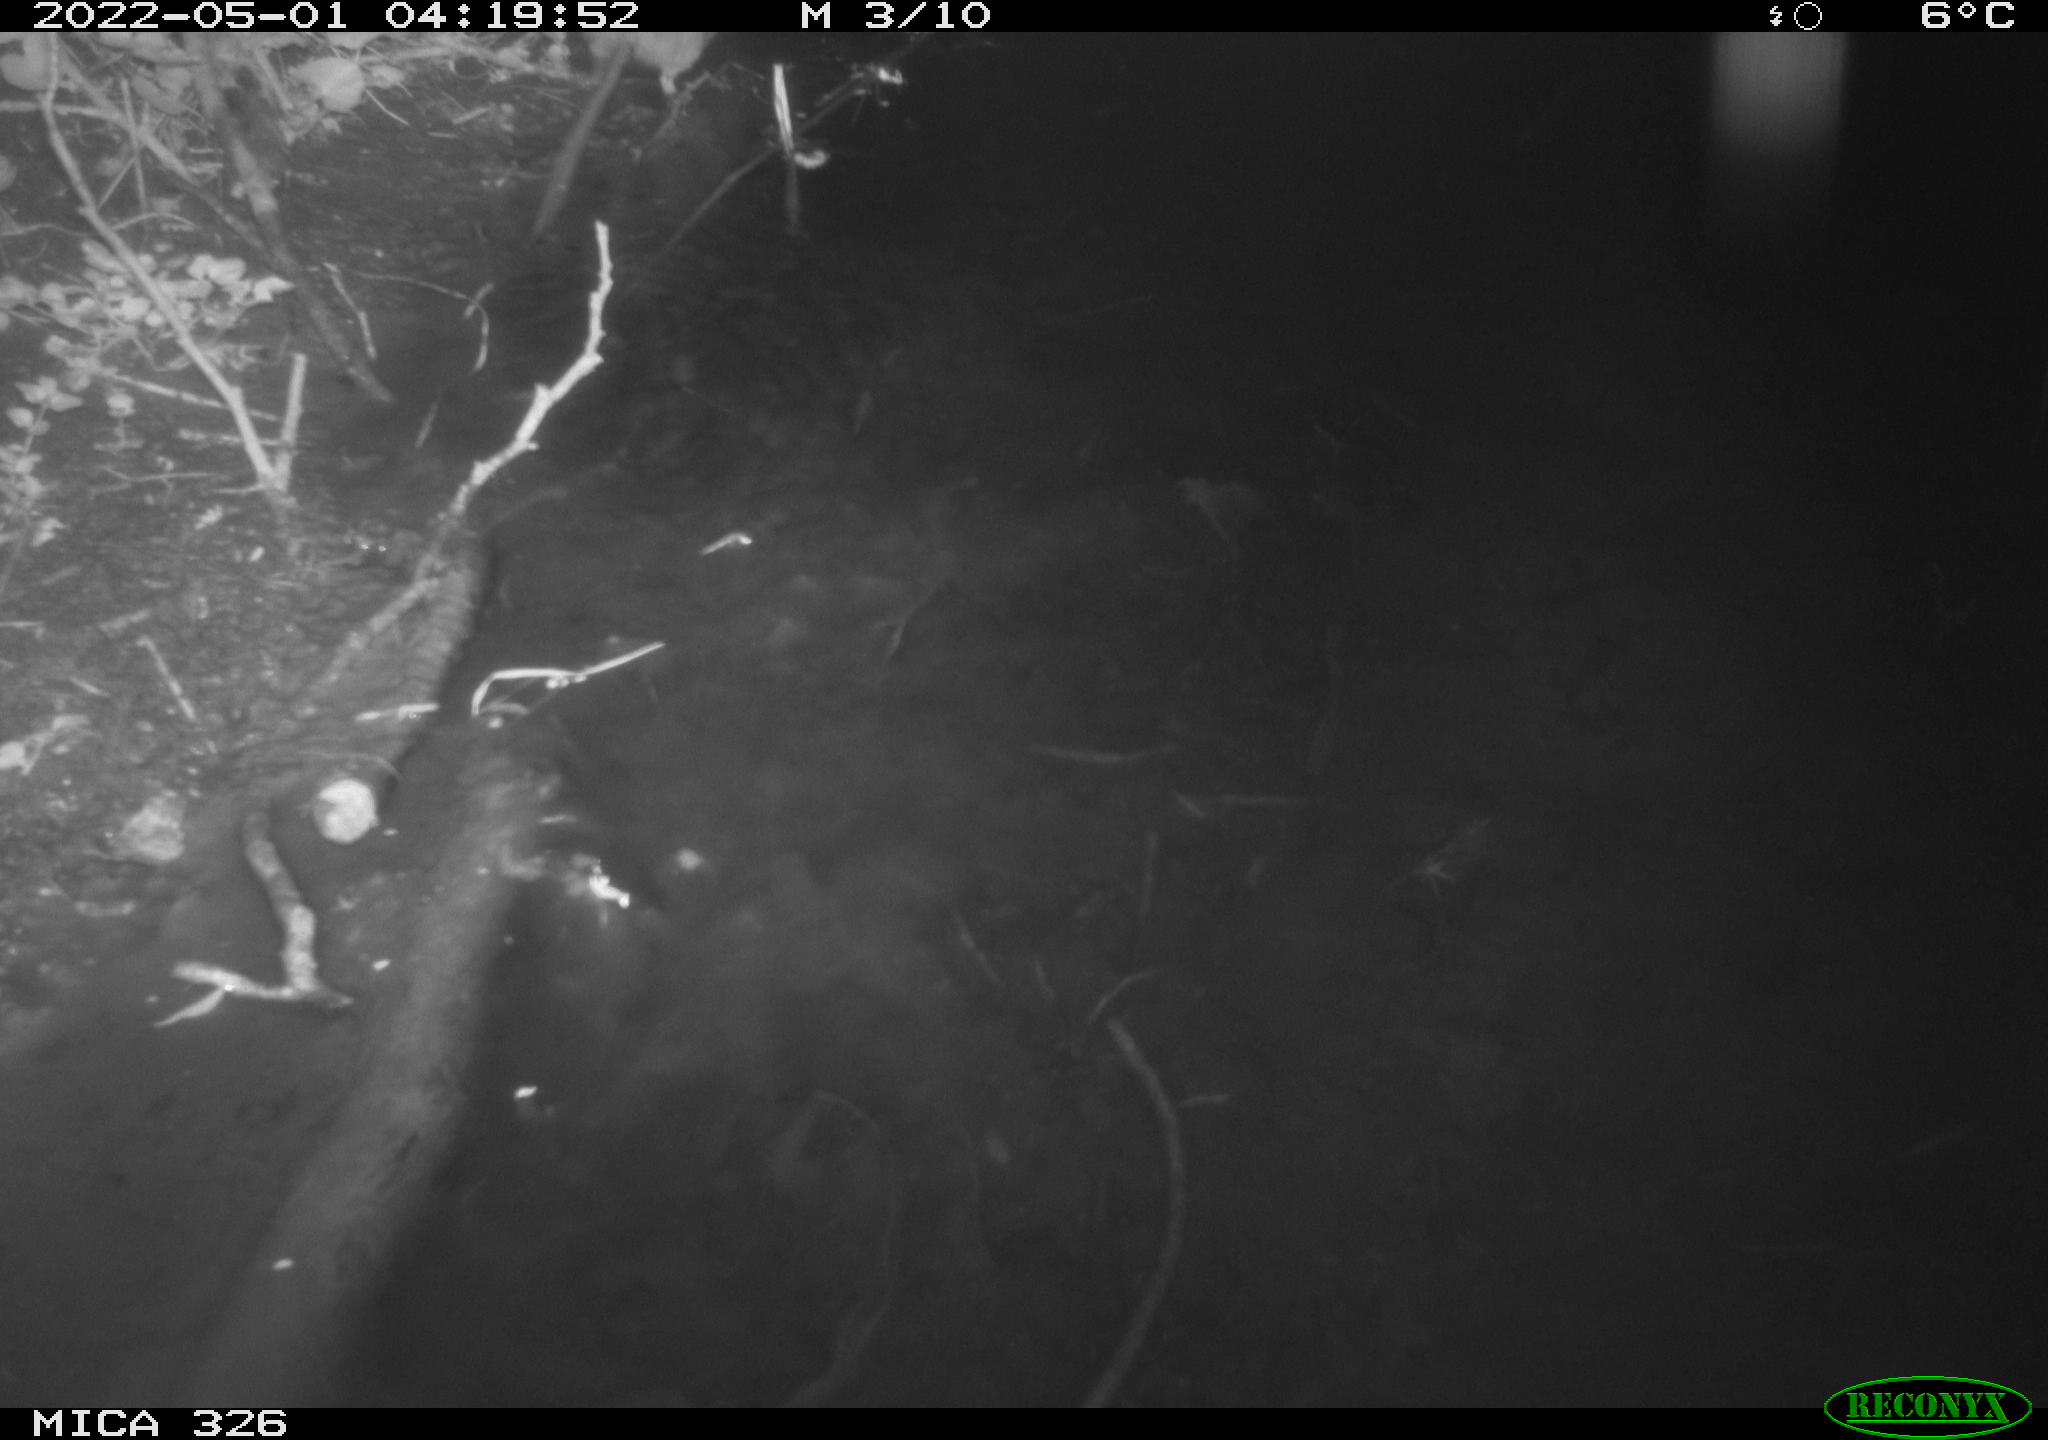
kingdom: Animalia
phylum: Chordata
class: Mammalia
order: Rodentia
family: Muridae
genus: Rattus
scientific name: Rattus norvegicus
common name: Brown rat
